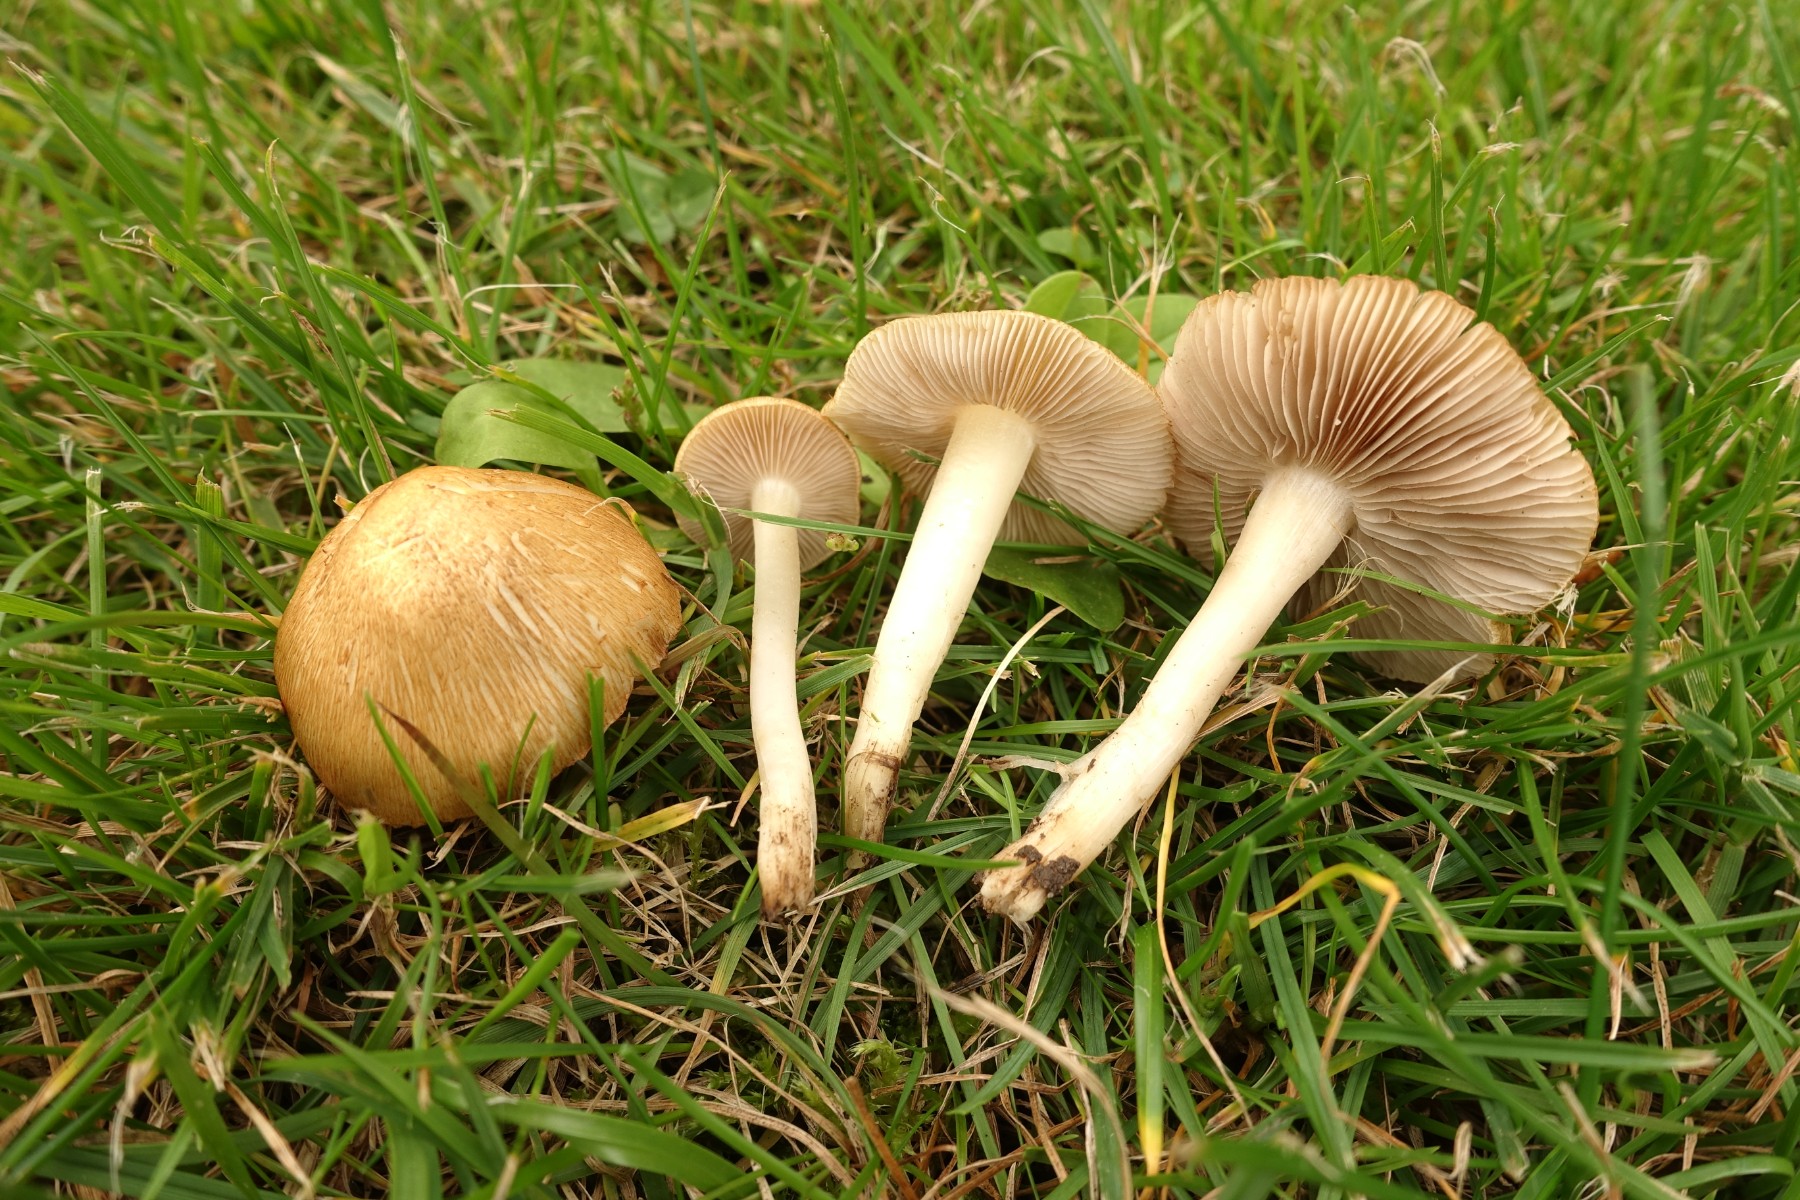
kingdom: Fungi
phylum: Basidiomycota
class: Agaricomycetes
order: Agaricales
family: Inocybaceae
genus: Inocybe
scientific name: Inocybe auricoma
